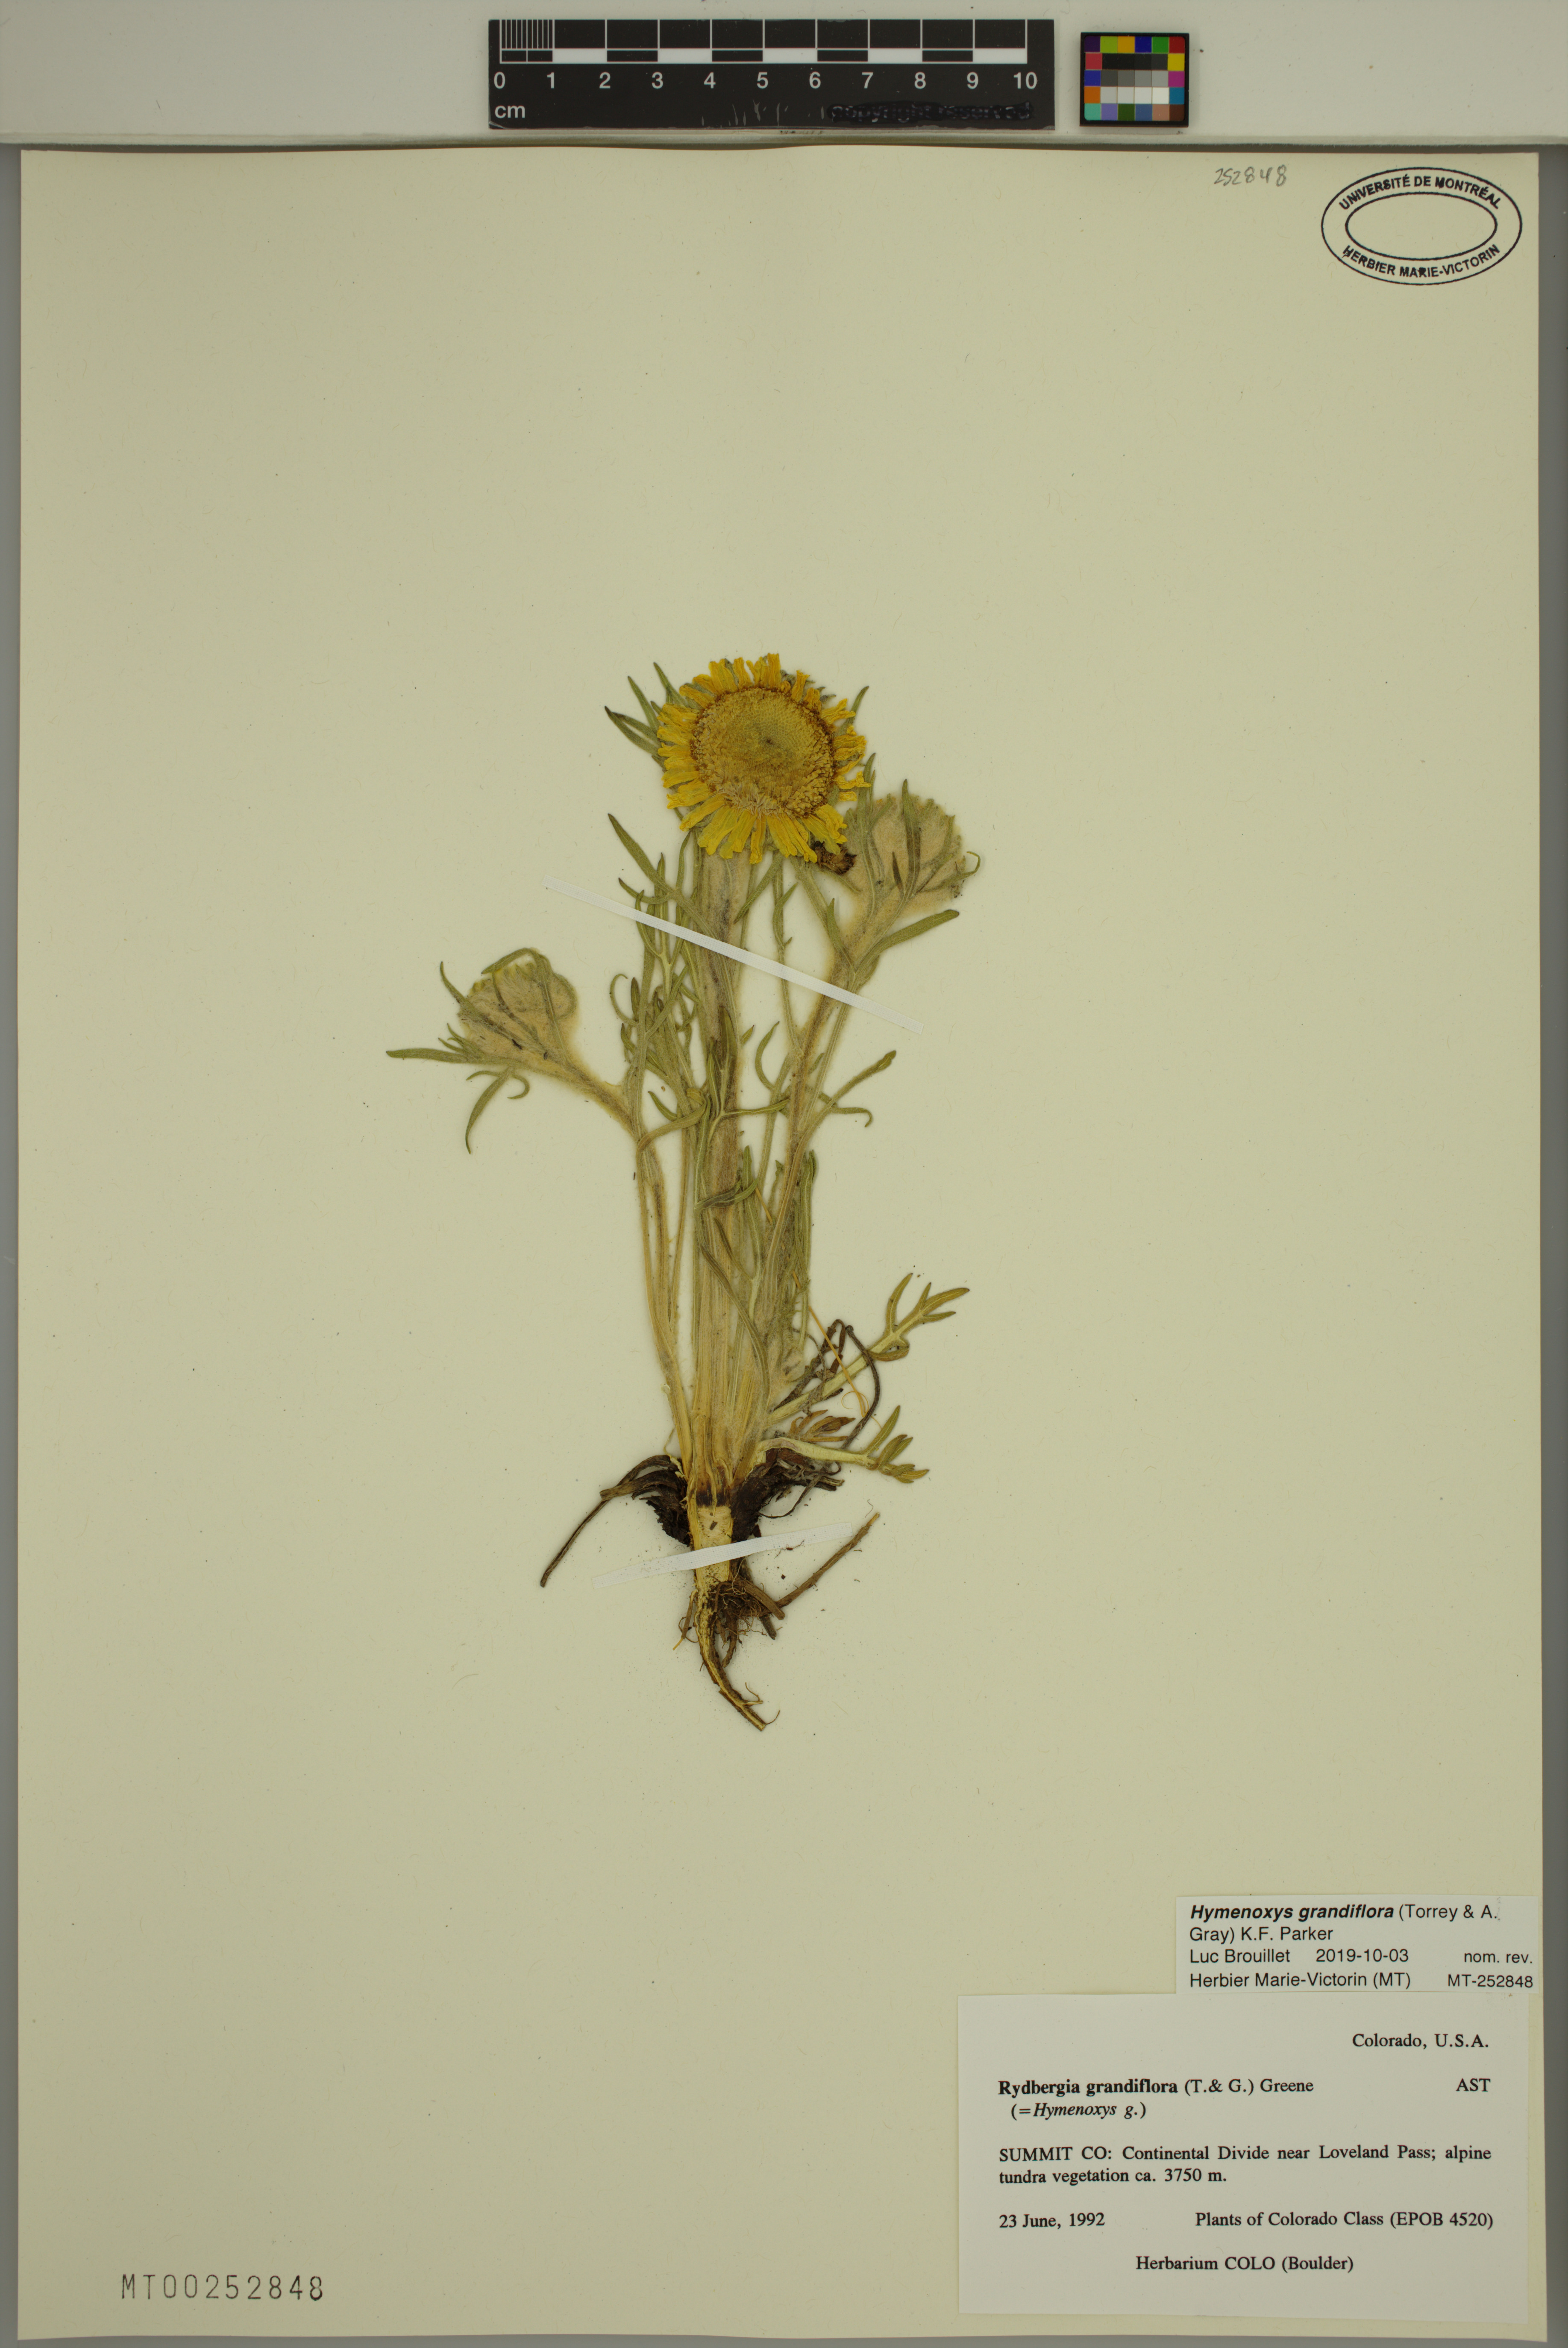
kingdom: Plantae
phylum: Tracheophyta
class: Magnoliopsida
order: Asterales
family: Asteraceae
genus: Hymenoxys
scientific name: Hymenoxys grandiflora
